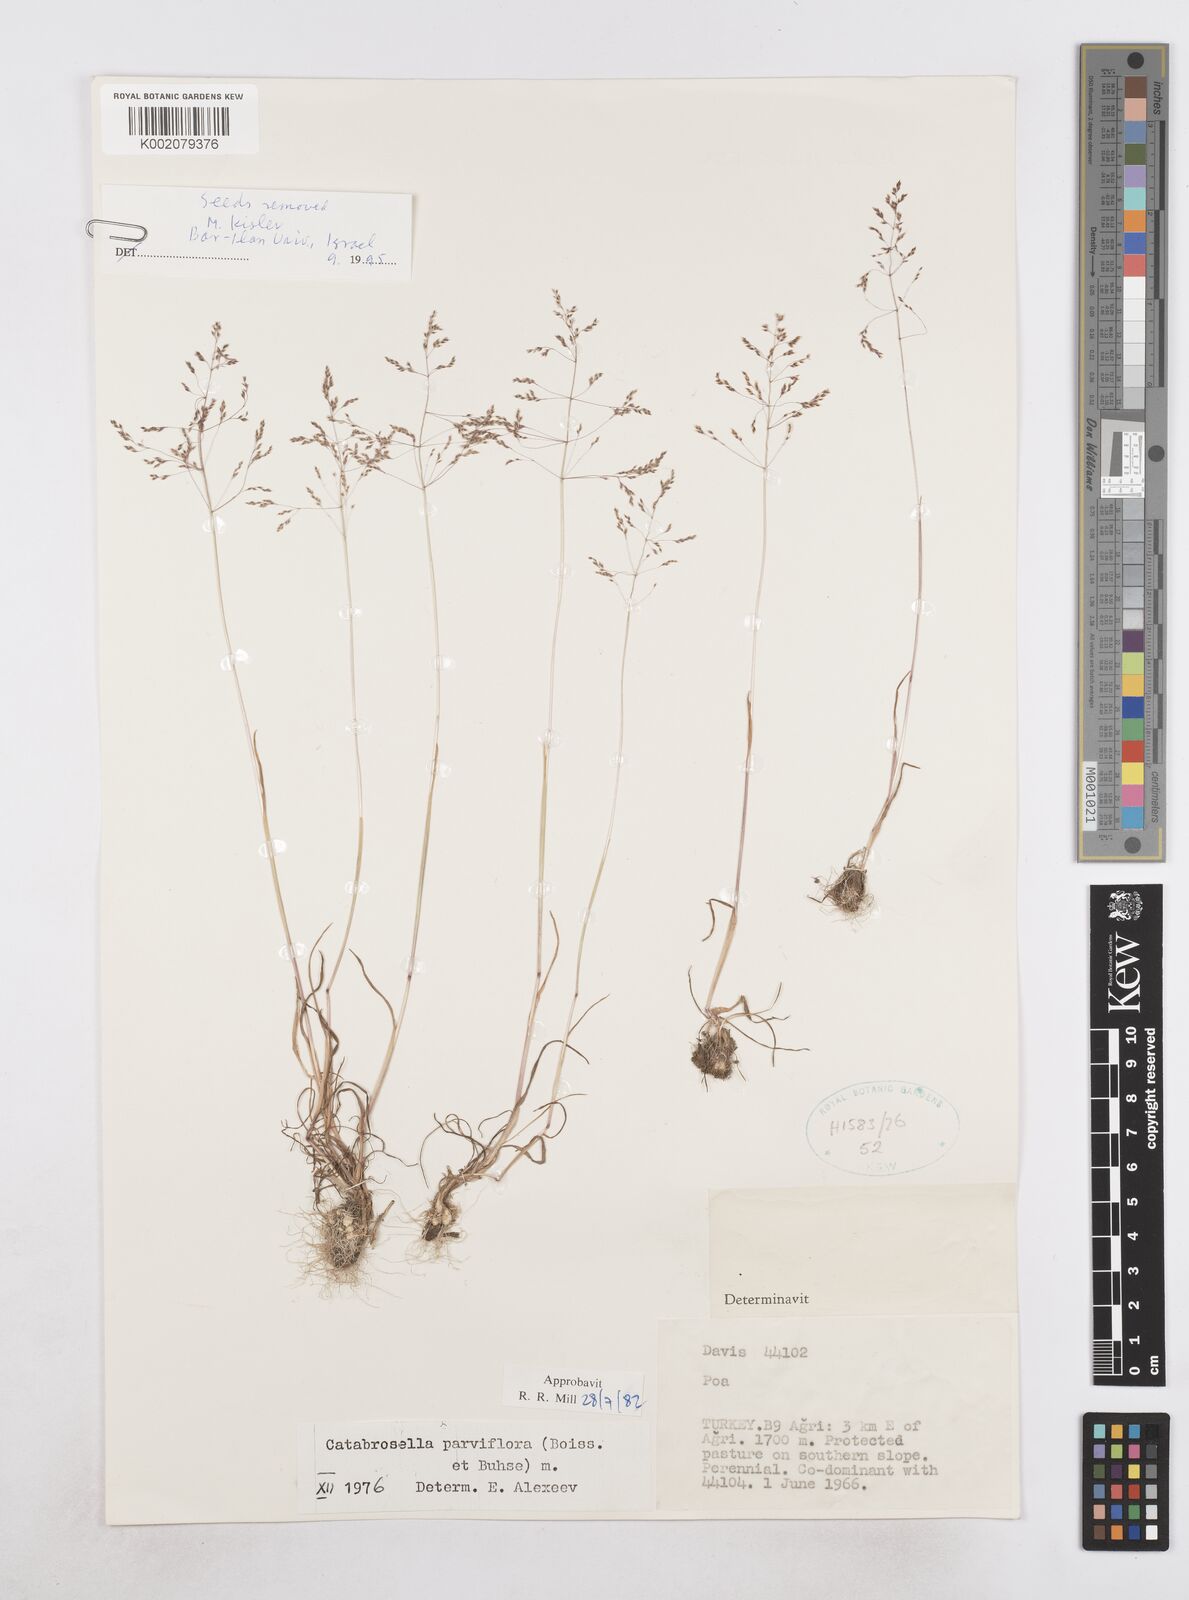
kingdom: Plantae
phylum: Tracheophyta
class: Liliopsida
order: Poales
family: Poaceae
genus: Catabrosella
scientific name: Catabrosella humilis
